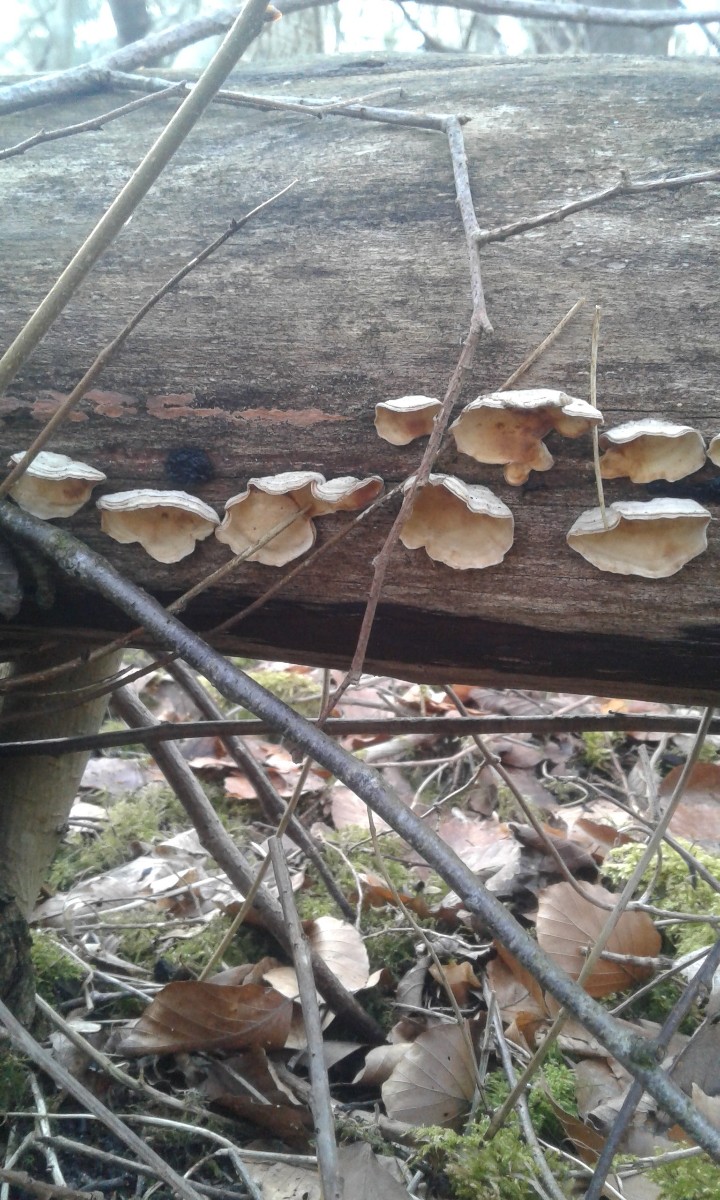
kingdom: Fungi
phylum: Basidiomycota
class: Agaricomycetes
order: Russulales
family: Stereaceae
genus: Stereum
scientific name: Stereum hirsutum
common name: håret lædersvamp
